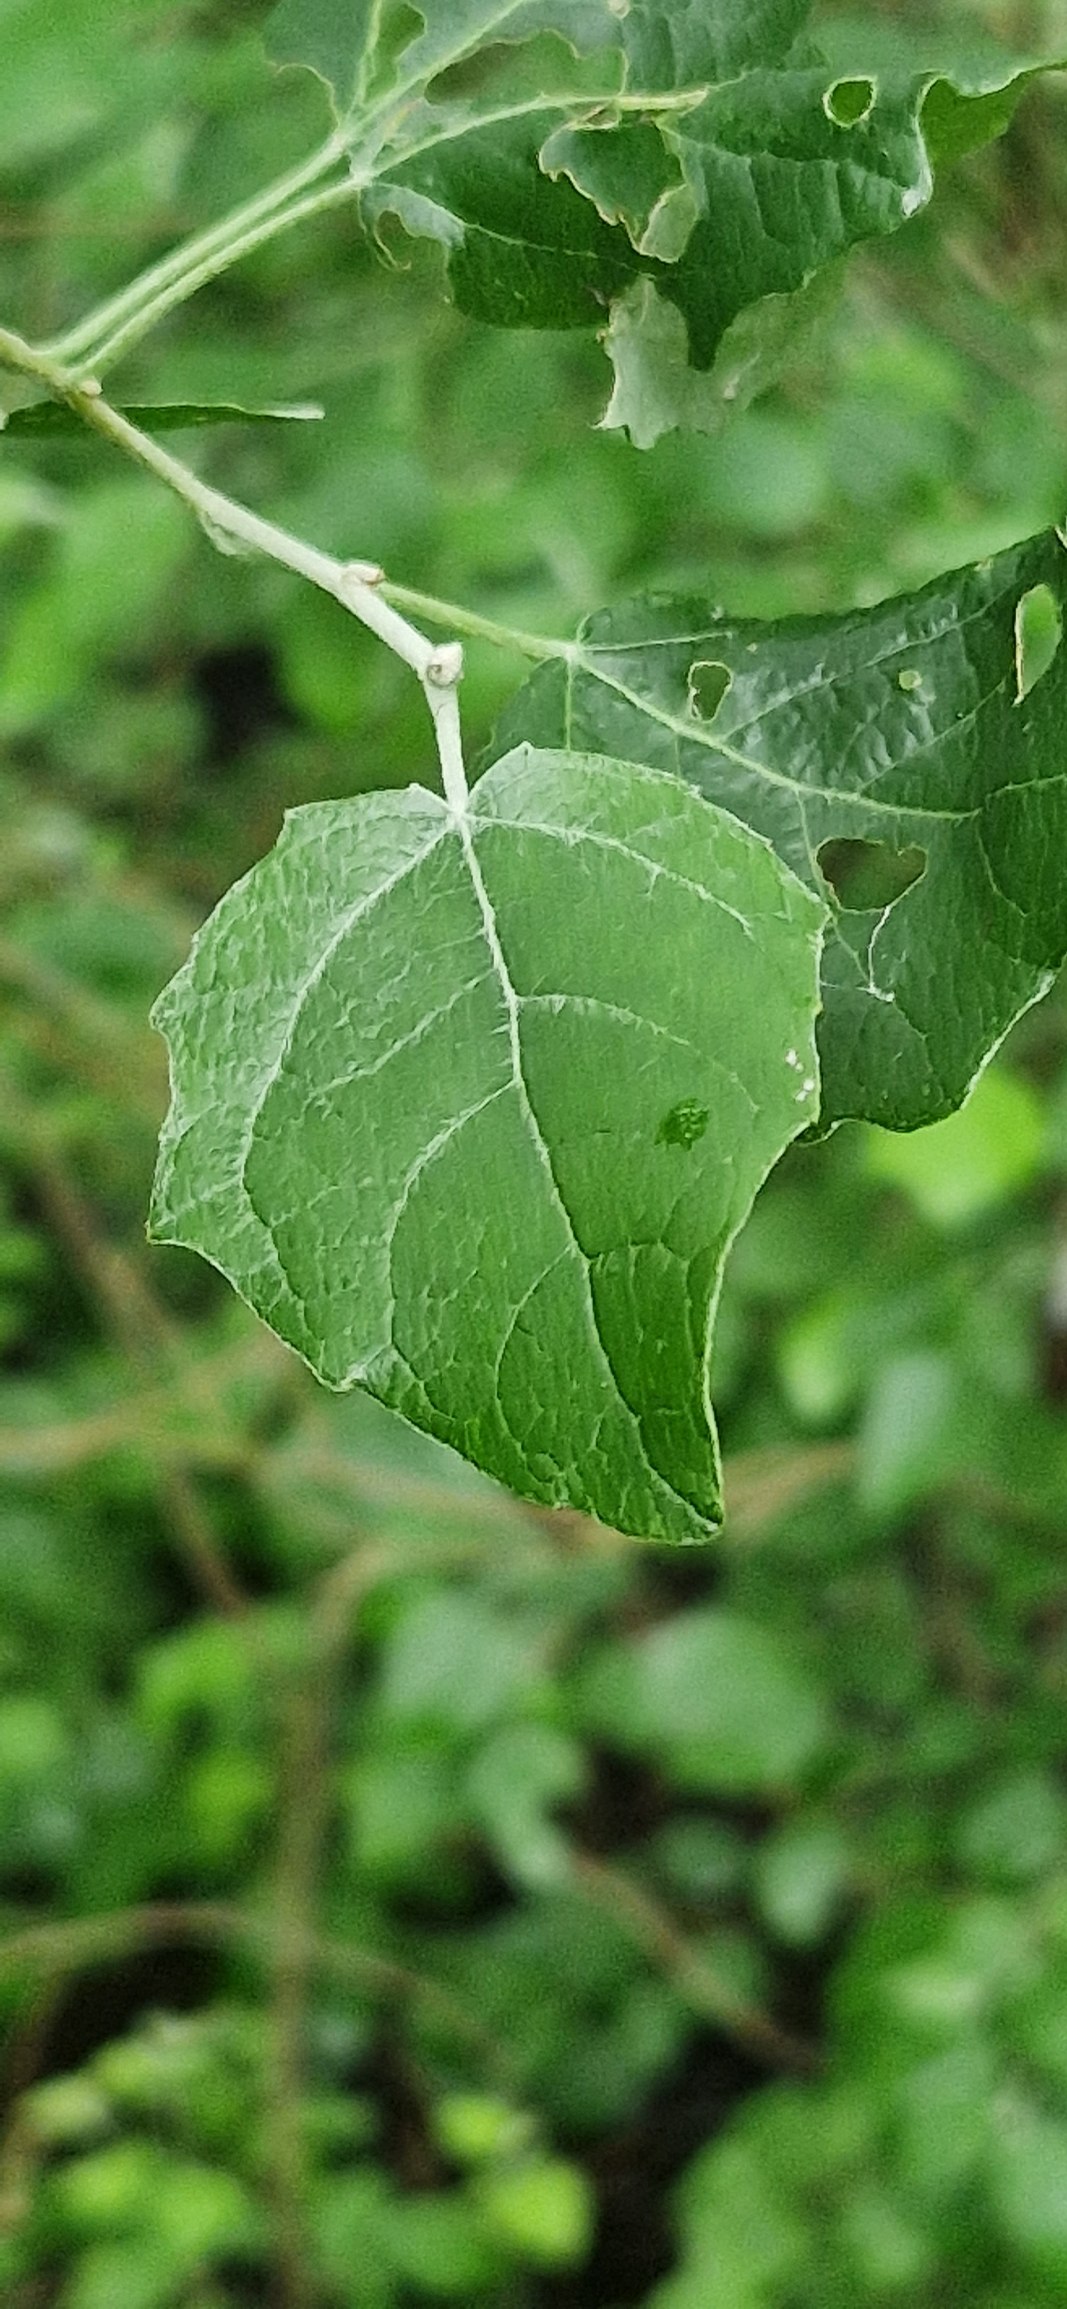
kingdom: Plantae
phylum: Tracheophyta
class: Magnoliopsida
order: Malpighiales
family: Salicaceae
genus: Populus
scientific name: Populus canescens
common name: Grå-poppel
